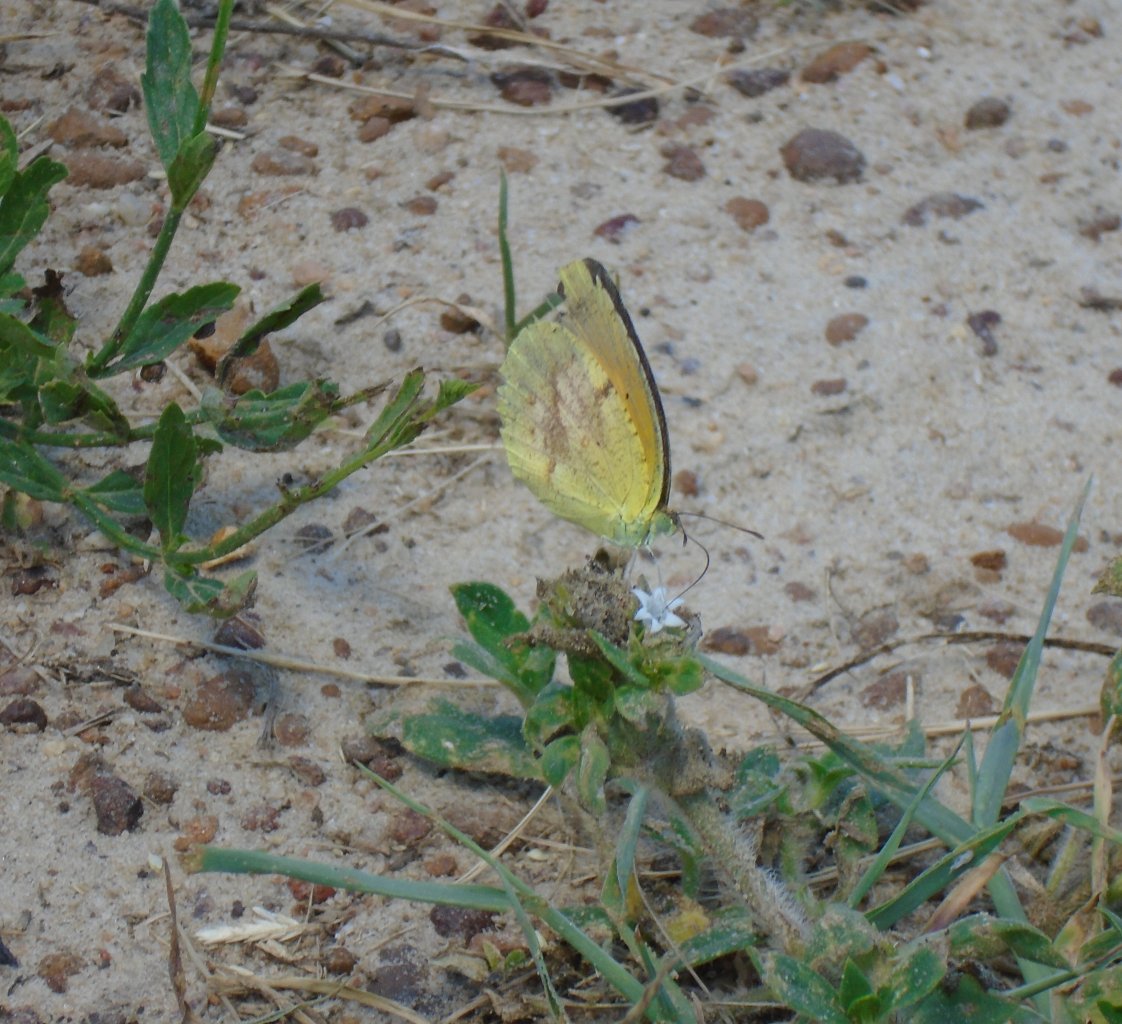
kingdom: Animalia
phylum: Arthropoda
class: Insecta
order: Lepidoptera
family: Pieridae
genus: Abaeis
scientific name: Abaeis nicippe
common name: Sleepy Orange
